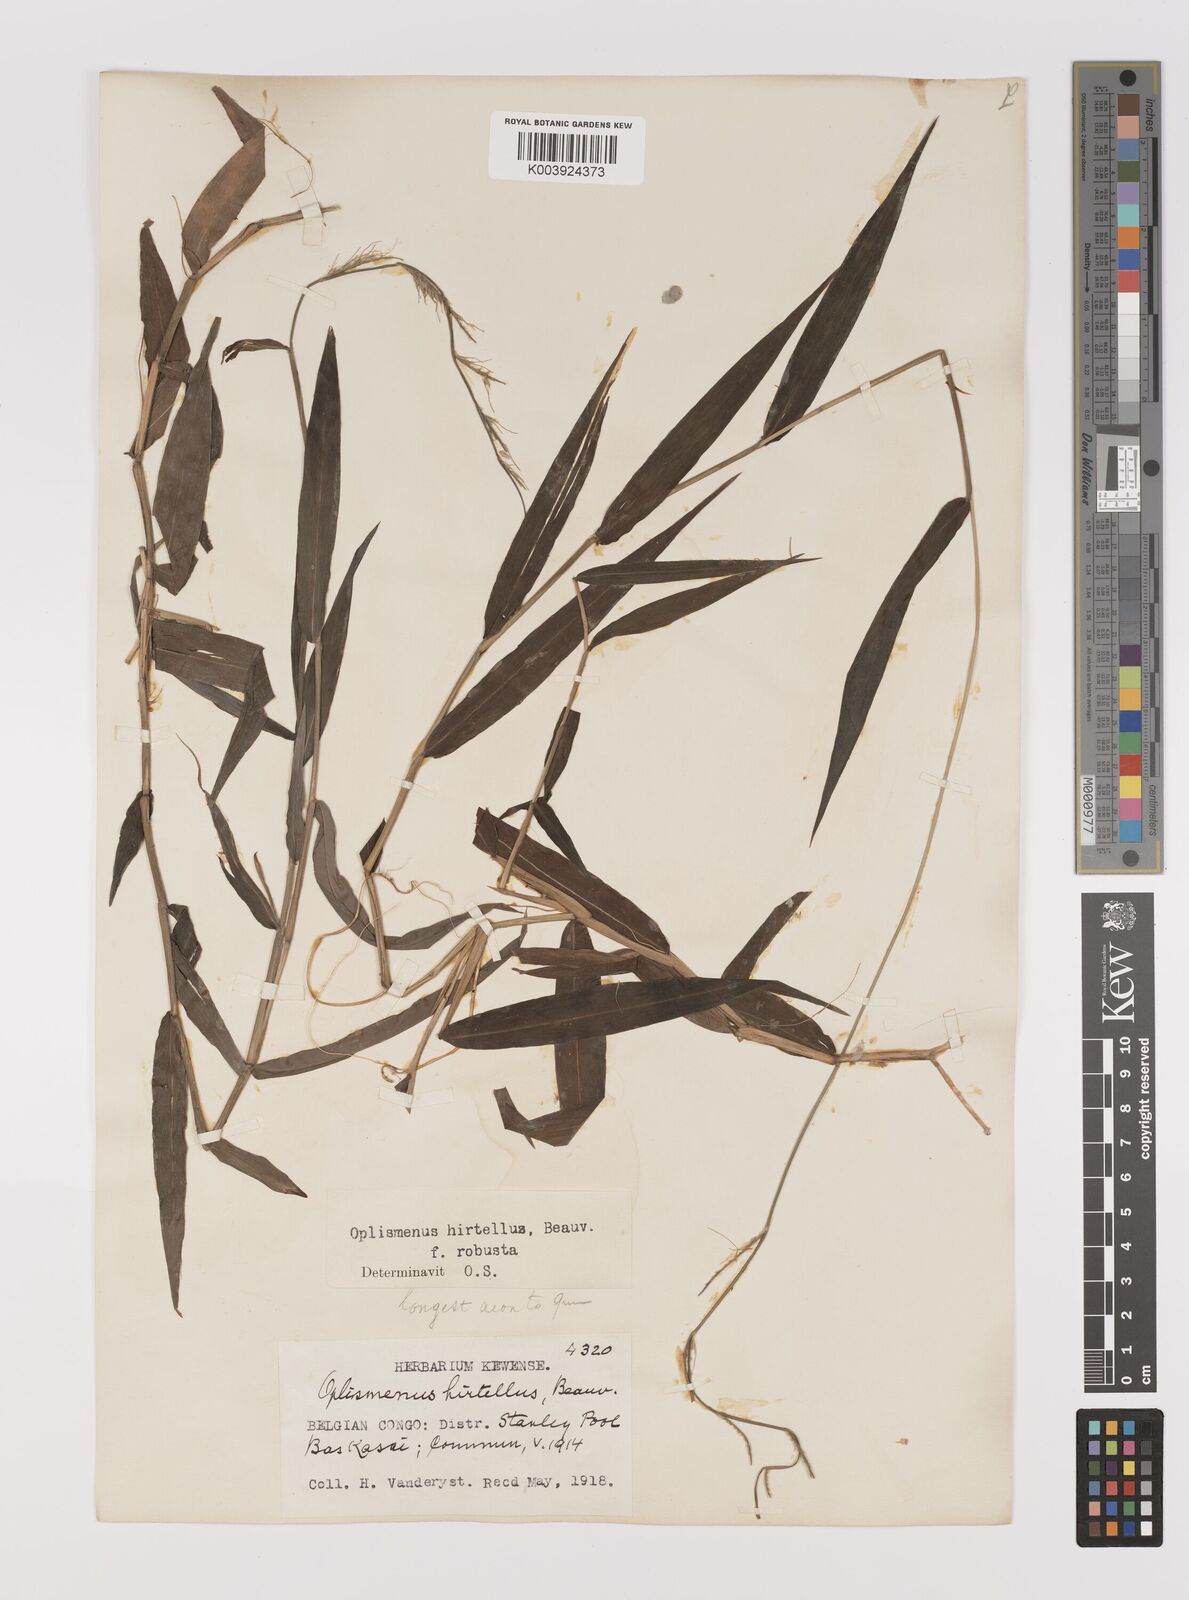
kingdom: Plantae
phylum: Tracheophyta
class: Liliopsida
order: Poales
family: Poaceae
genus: Oplismenus
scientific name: Oplismenus hirtellus
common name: Basketgrass
